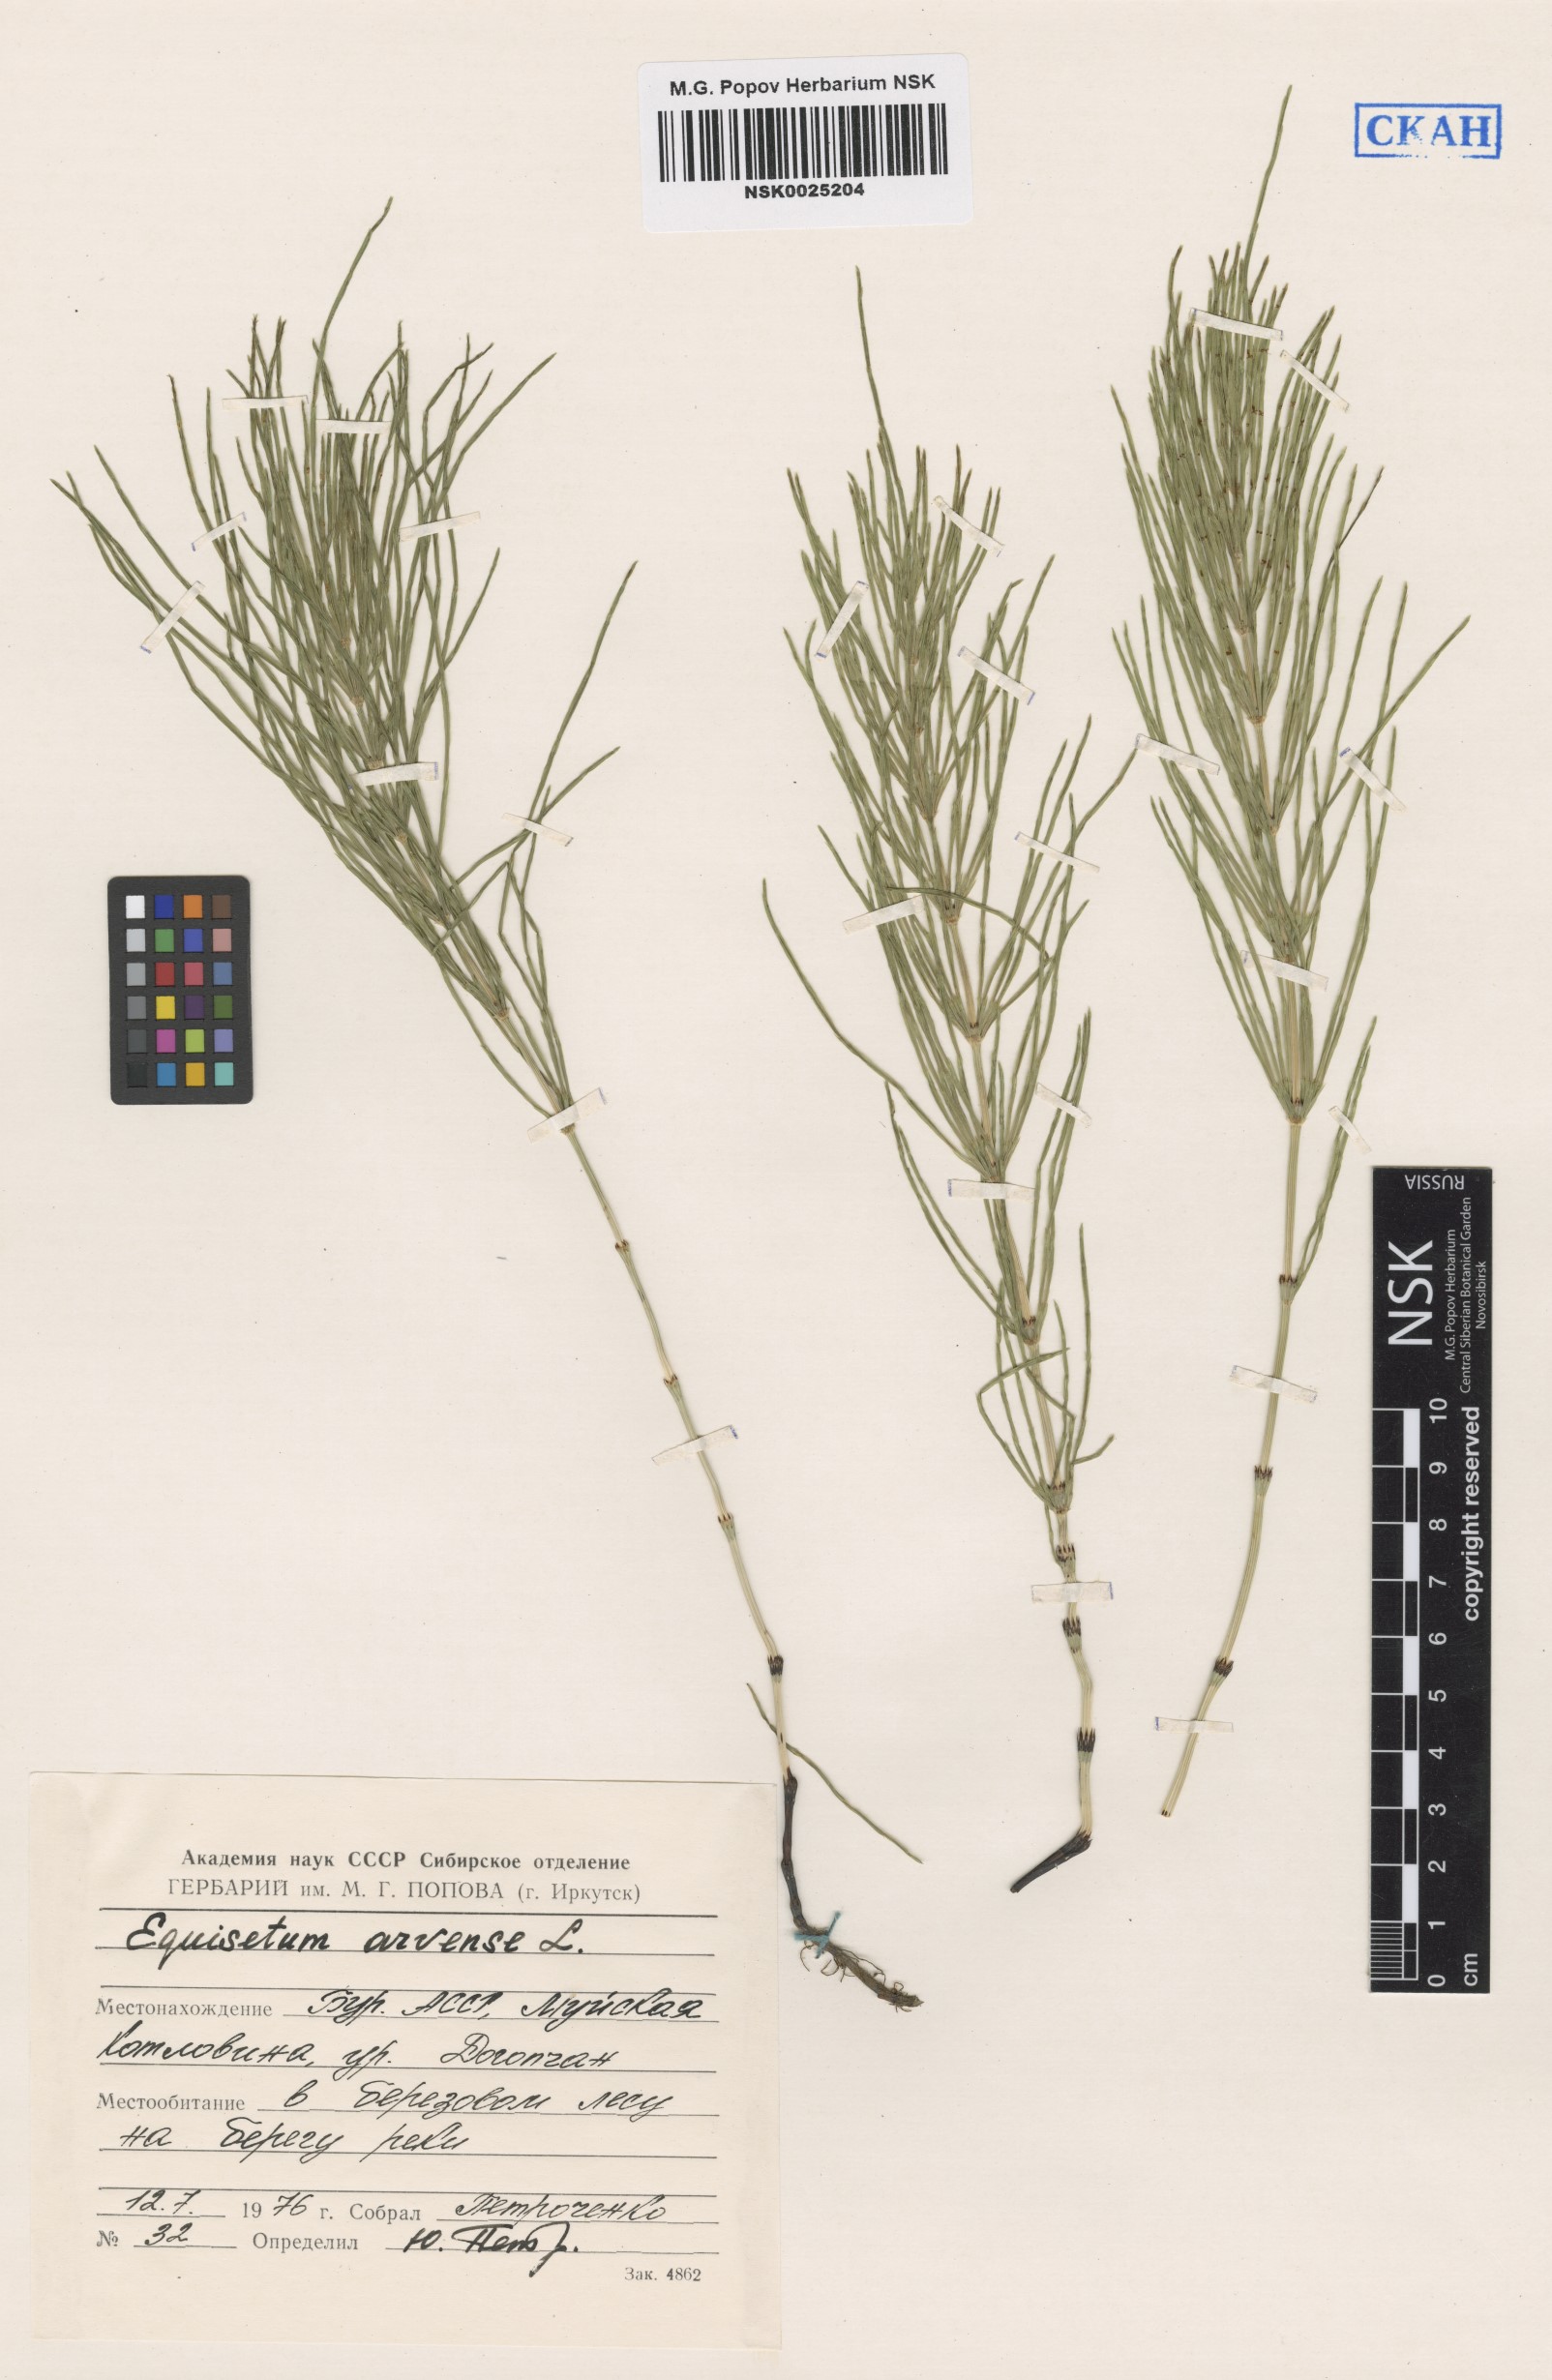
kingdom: Plantae
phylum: Tracheophyta
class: Polypodiopsida
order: Equisetales
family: Equisetaceae
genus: Equisetum
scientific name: Equisetum arvense
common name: Field horsetail
